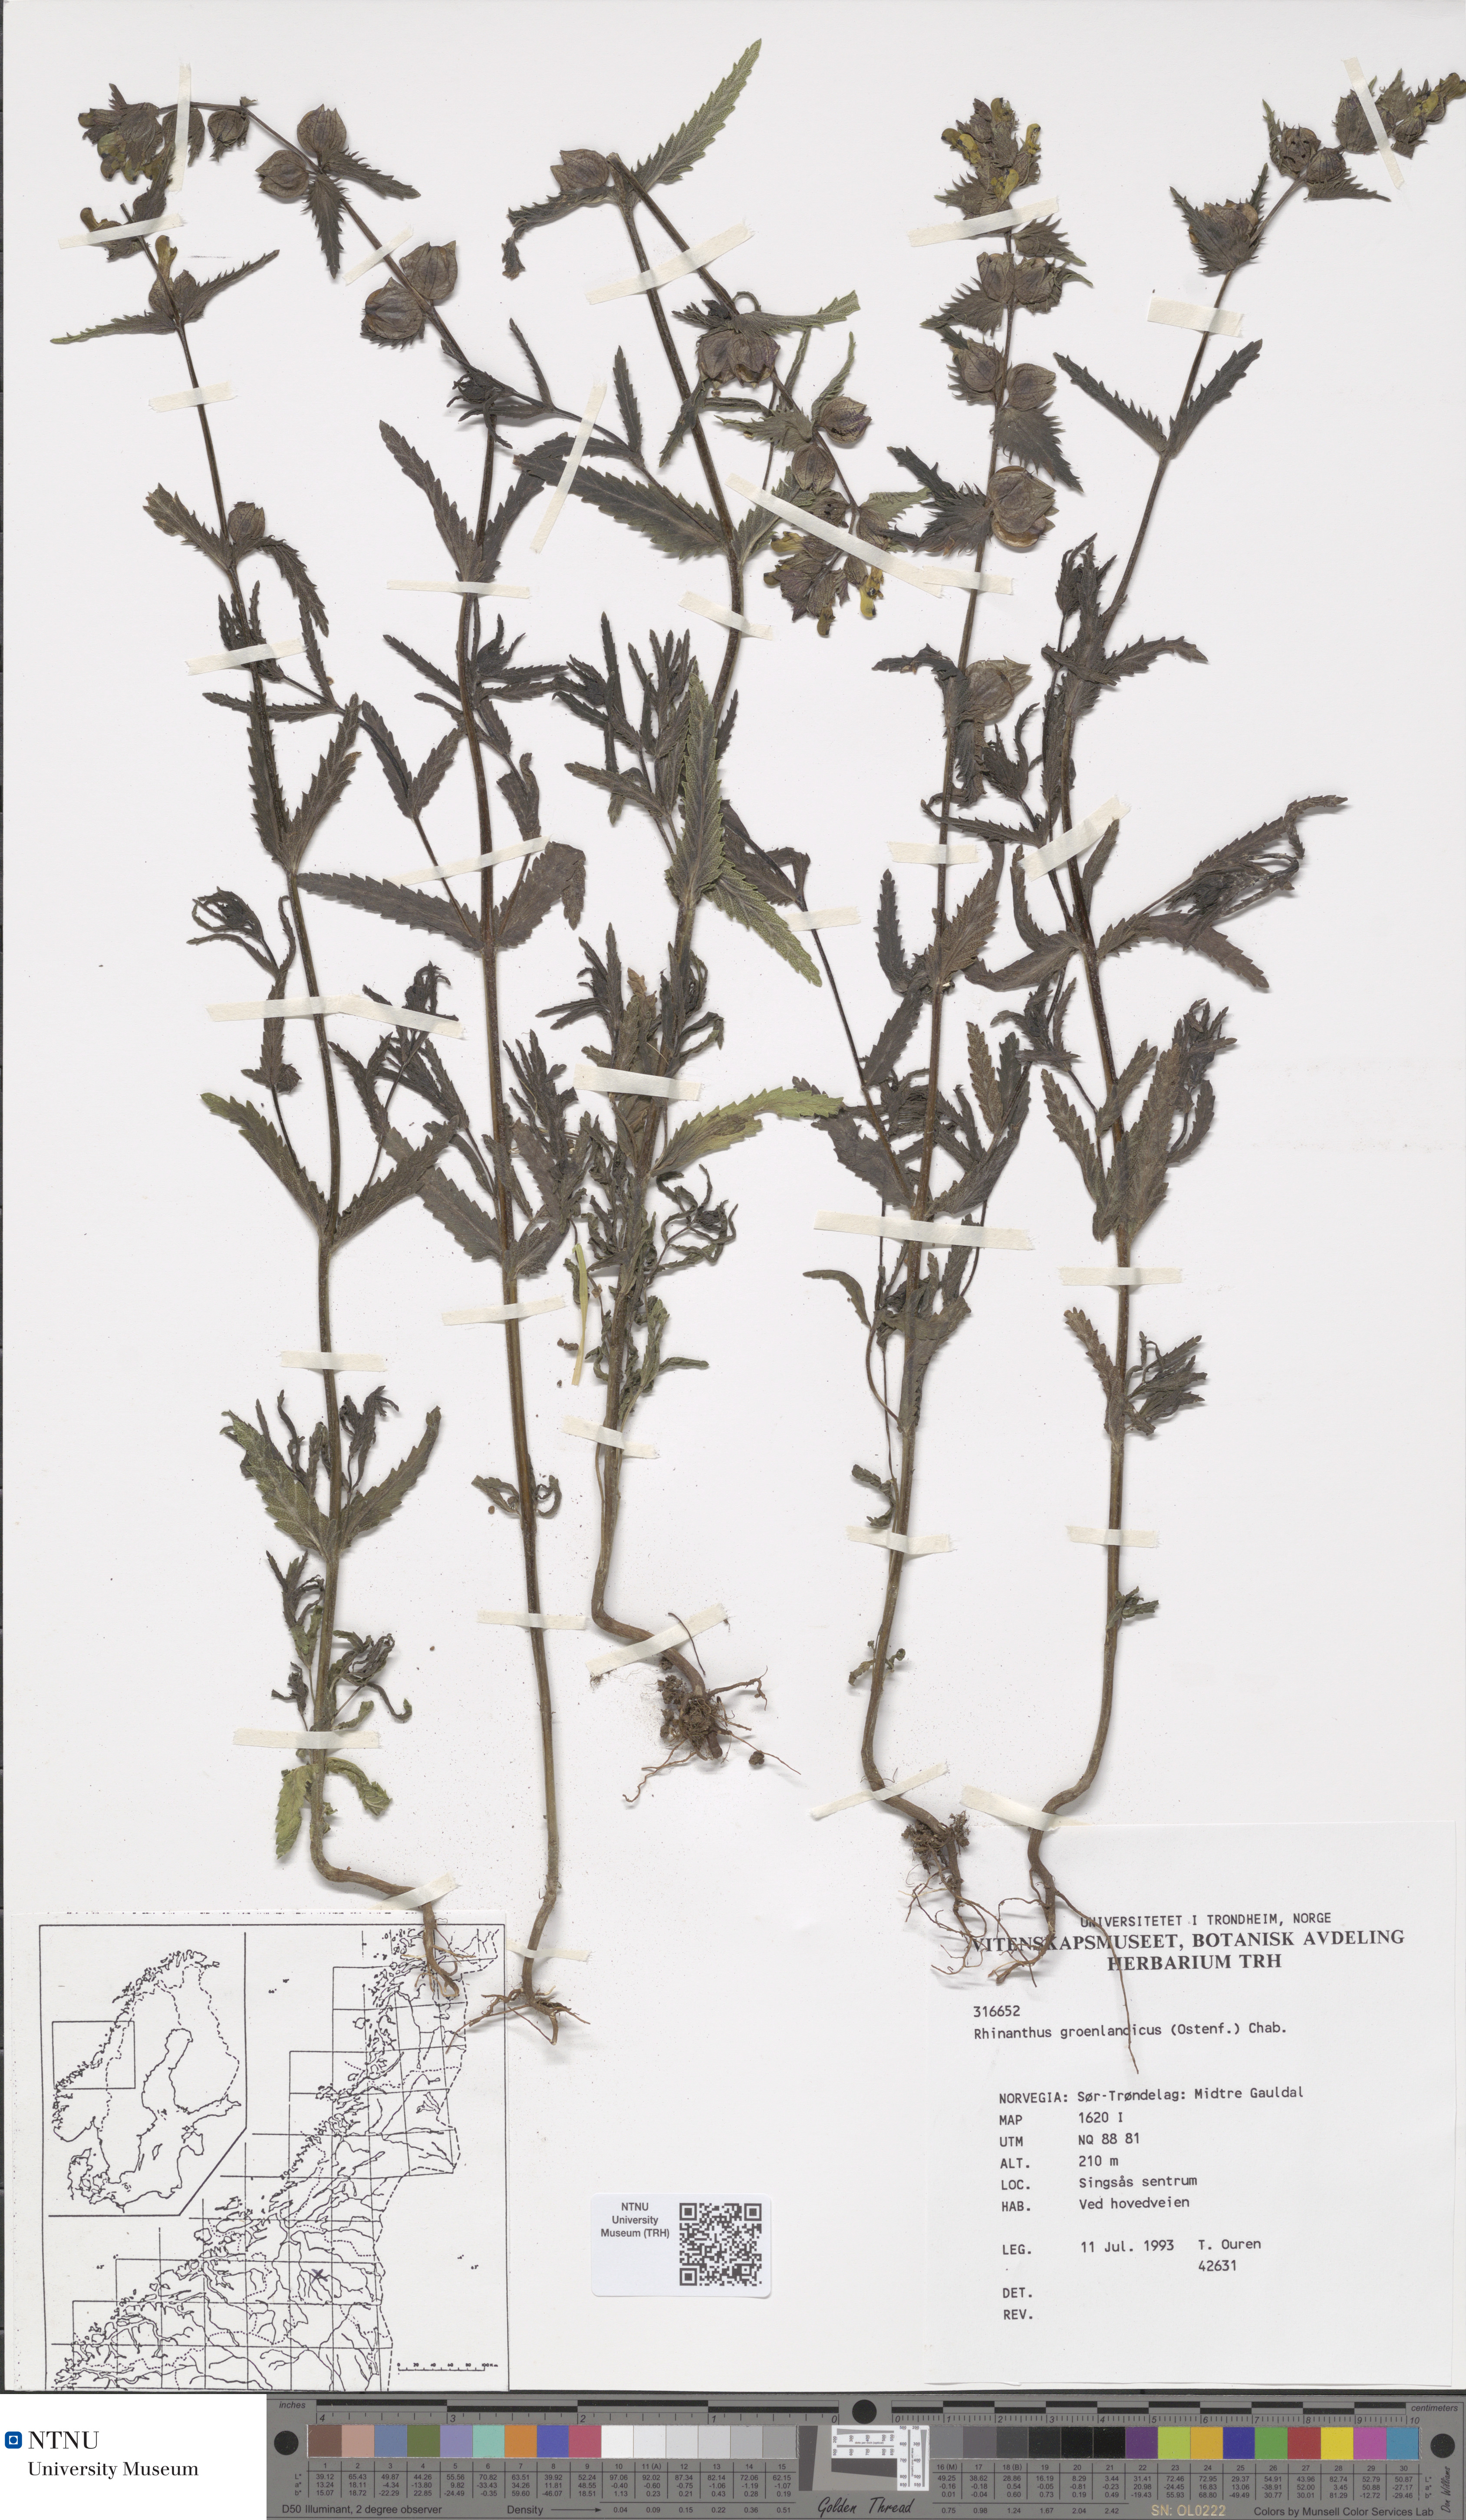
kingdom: Plantae
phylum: Tracheophyta
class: Magnoliopsida
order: Lamiales
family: Orobanchaceae
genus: Rhinanthus
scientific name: Rhinanthus groenlandicus
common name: Little yellow rattle
